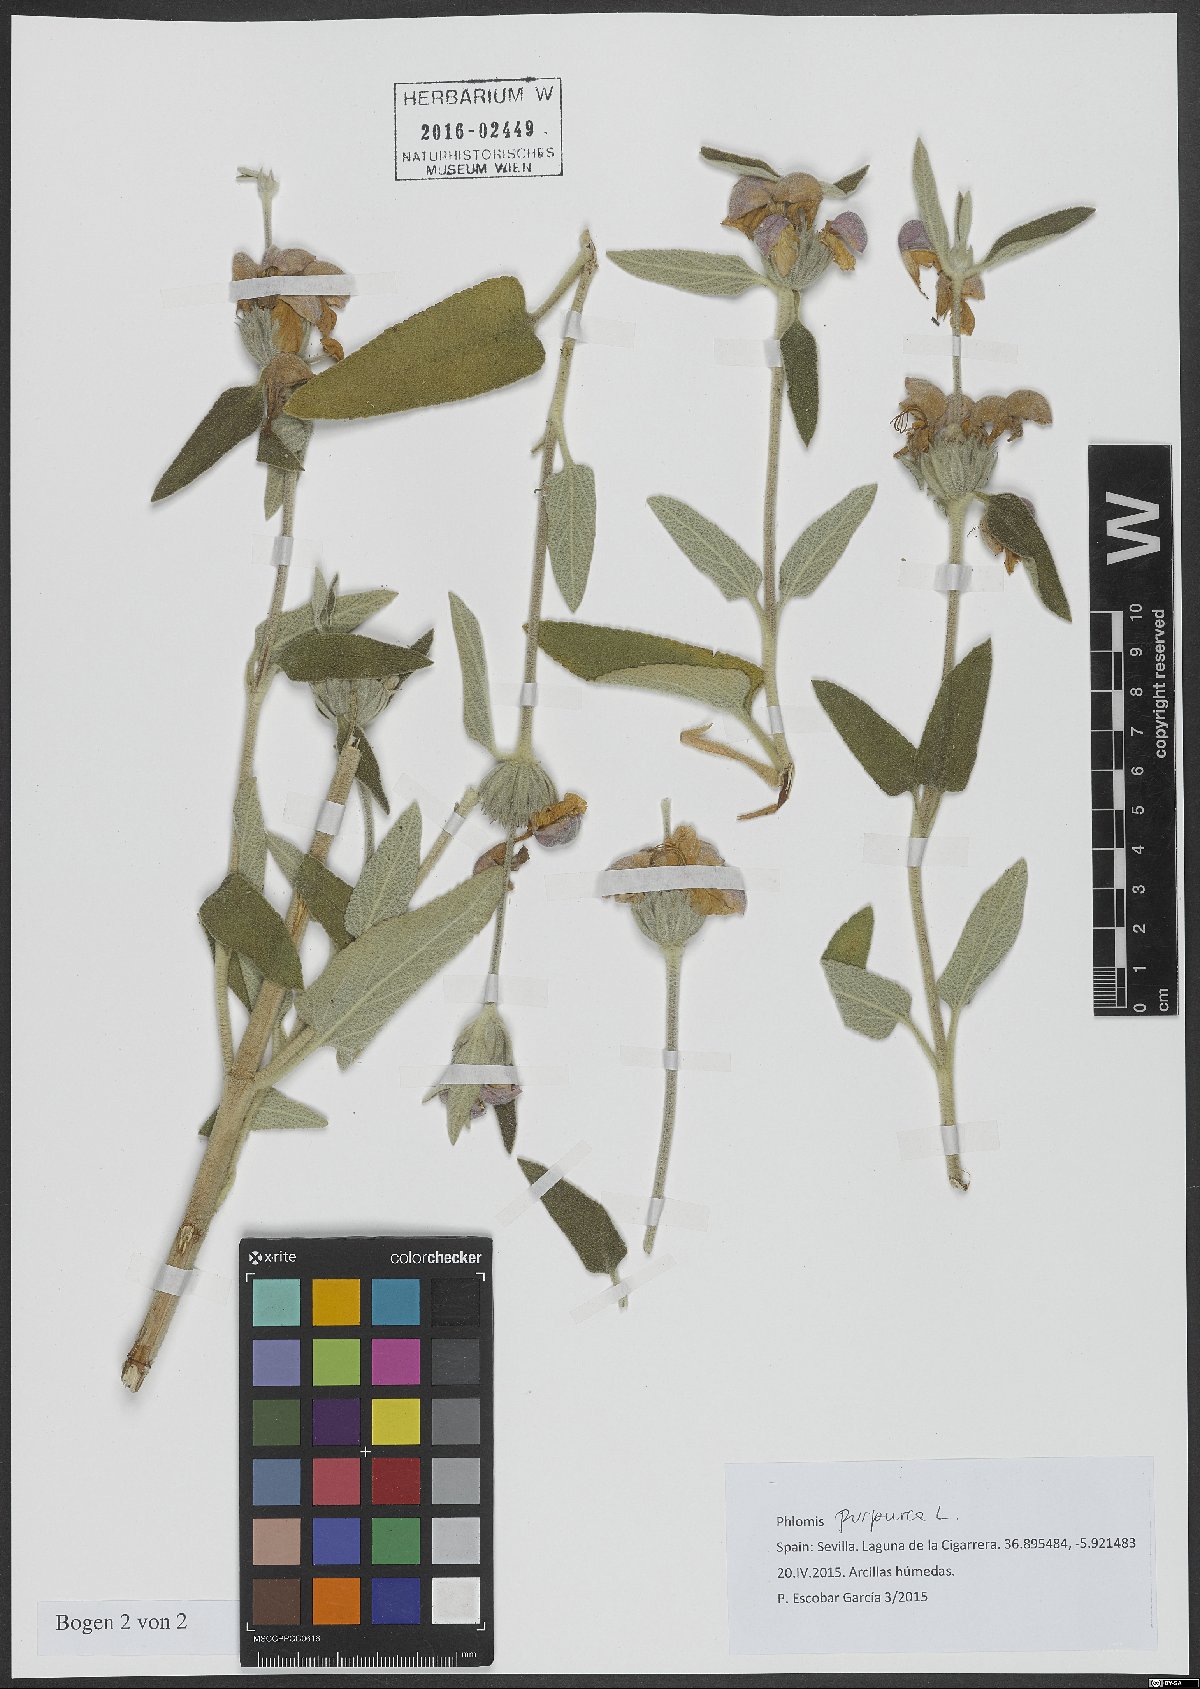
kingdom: Plantae
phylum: Tracheophyta
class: Magnoliopsida
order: Lamiales
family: Lamiaceae
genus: Phlomis
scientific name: Phlomis purpurea
